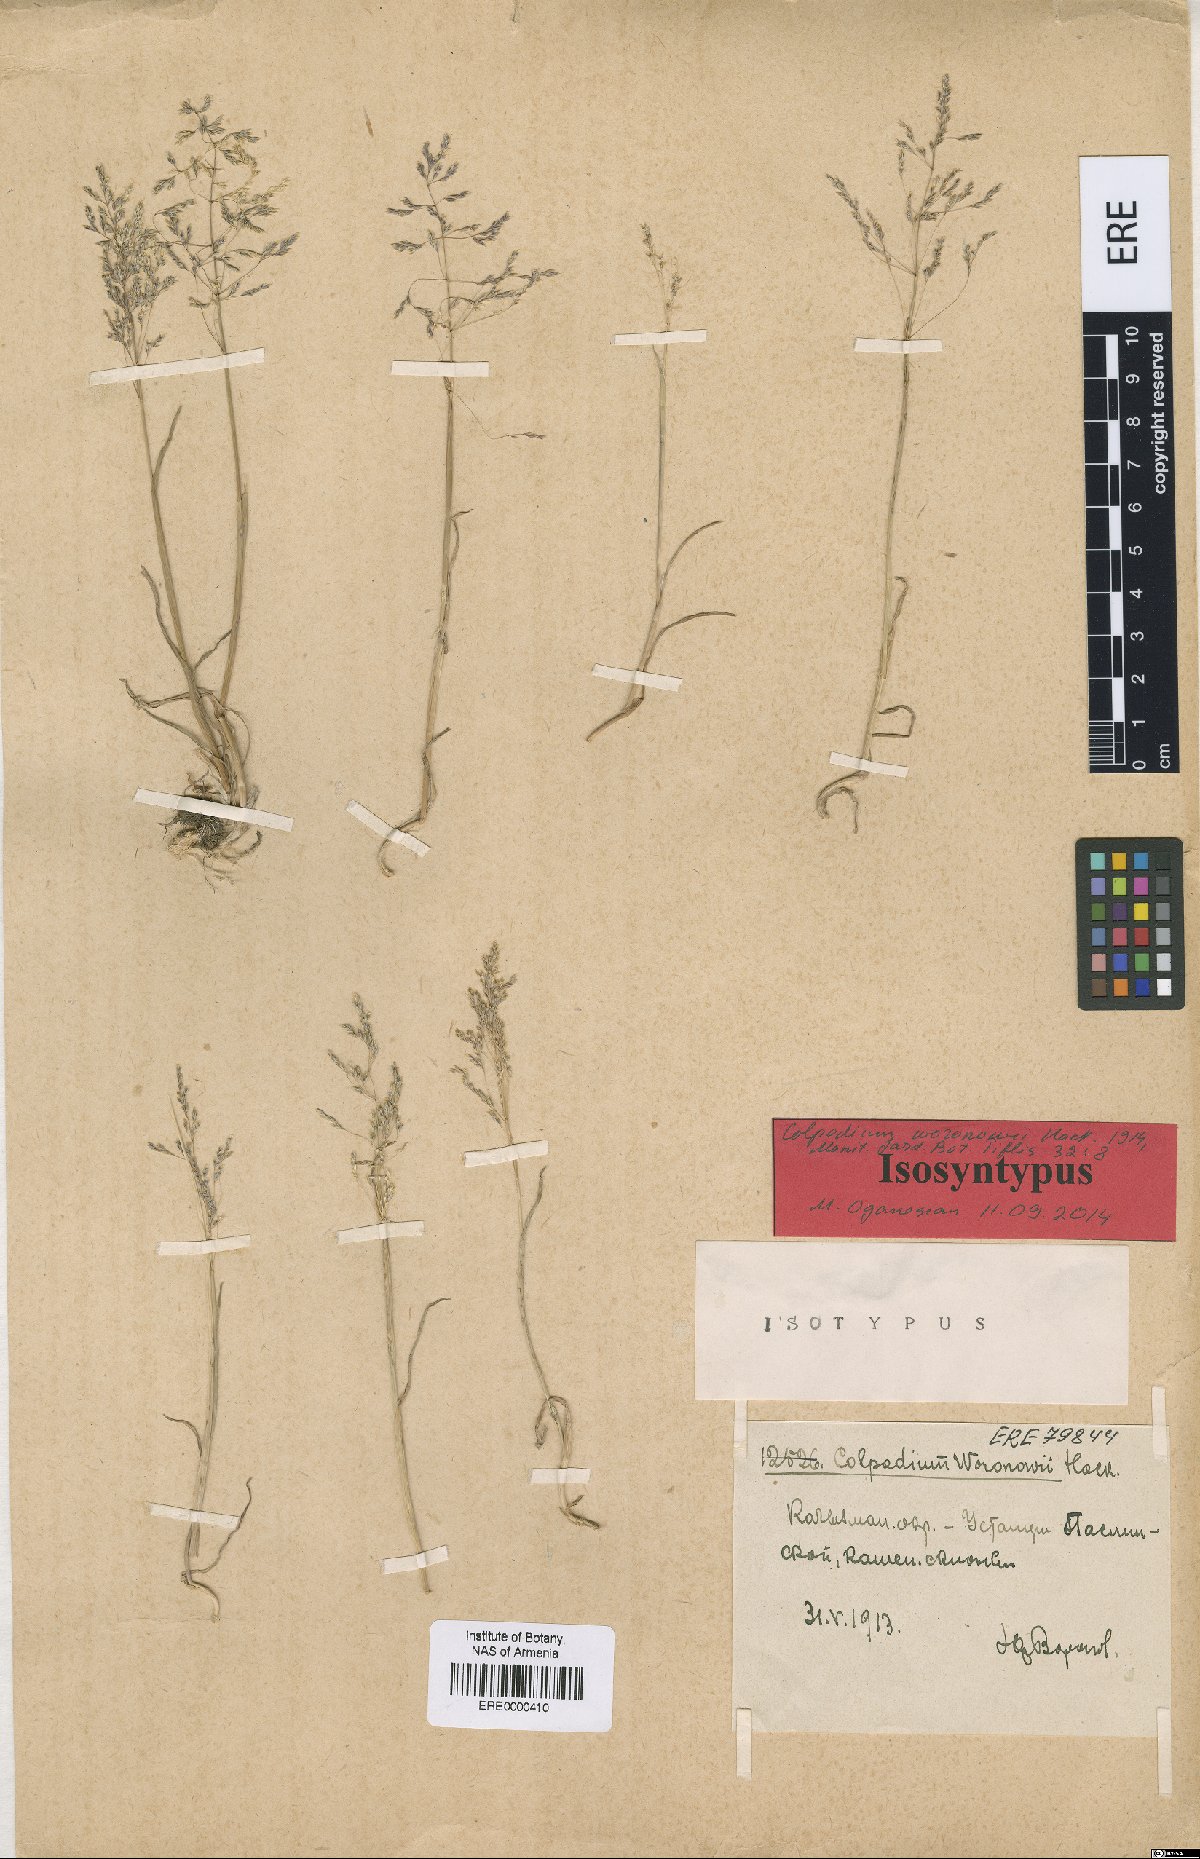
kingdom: Plantae
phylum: Tracheophyta
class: Liliopsida
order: Poales
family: Poaceae
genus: Catabrosella
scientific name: Catabrosella humilis
